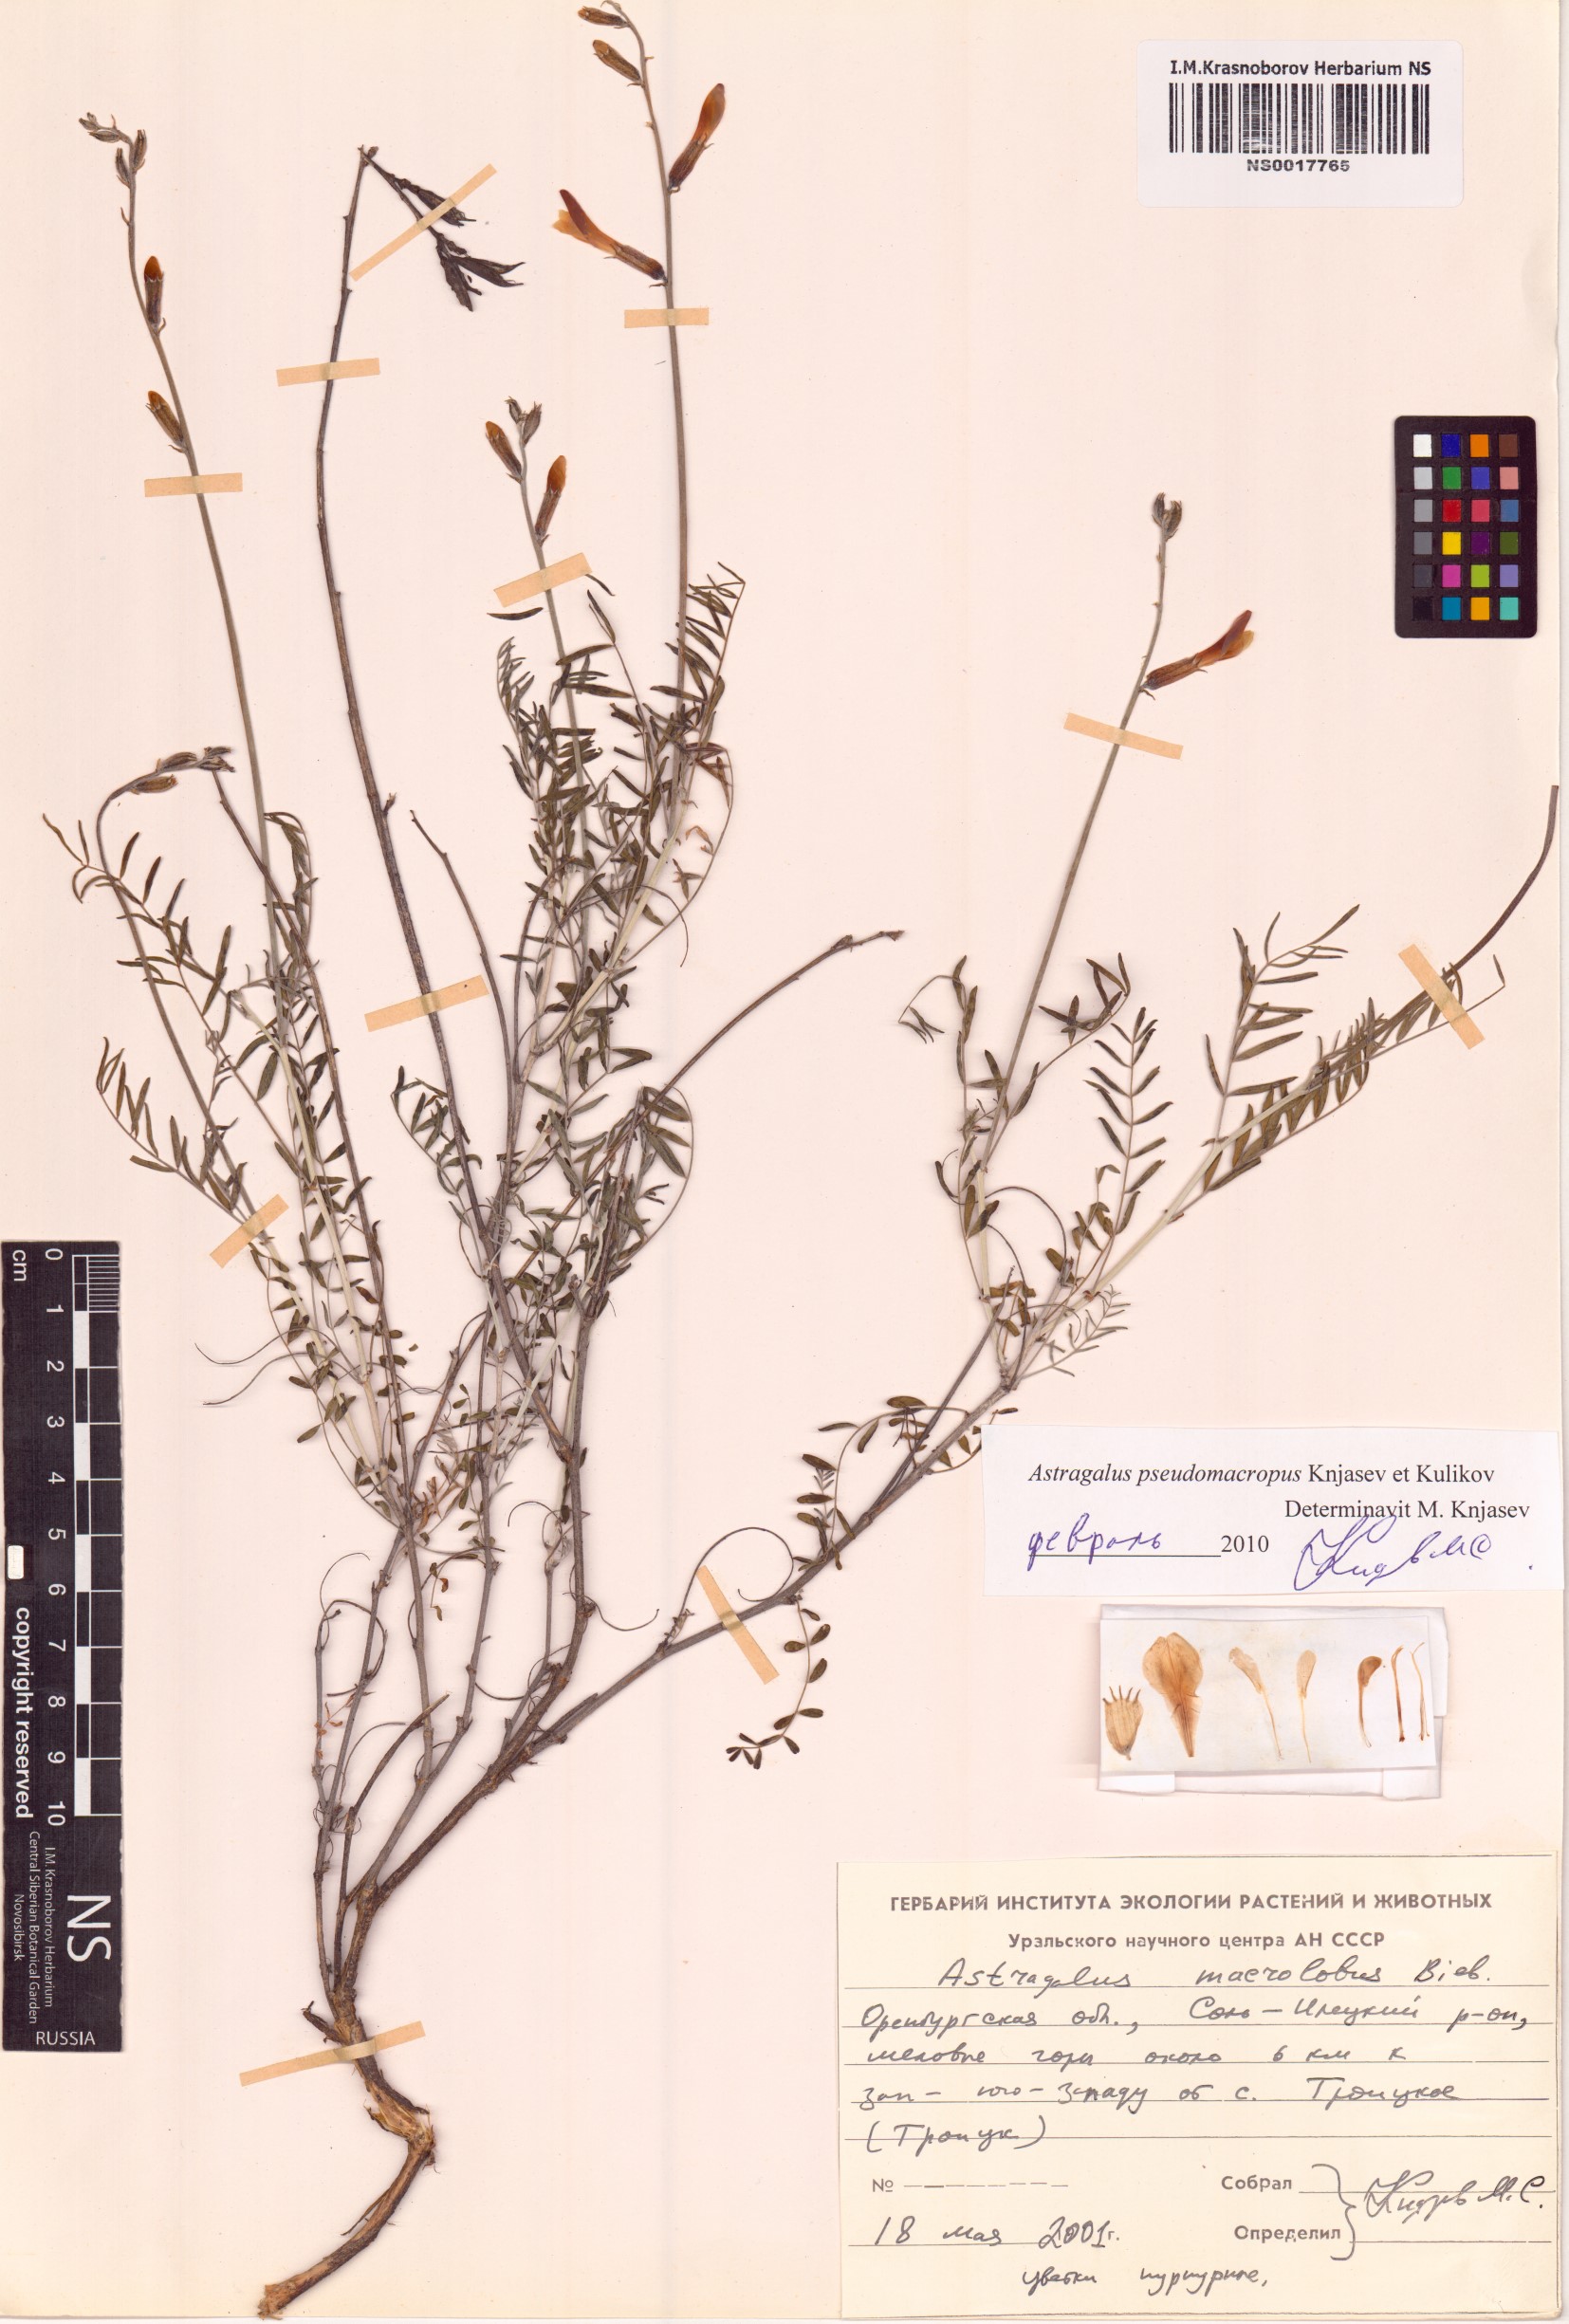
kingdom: Plantae
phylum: Tracheophyta
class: Magnoliopsida
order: Fabales
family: Fabaceae
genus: Astragalus
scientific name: Astragalus macrolobus
